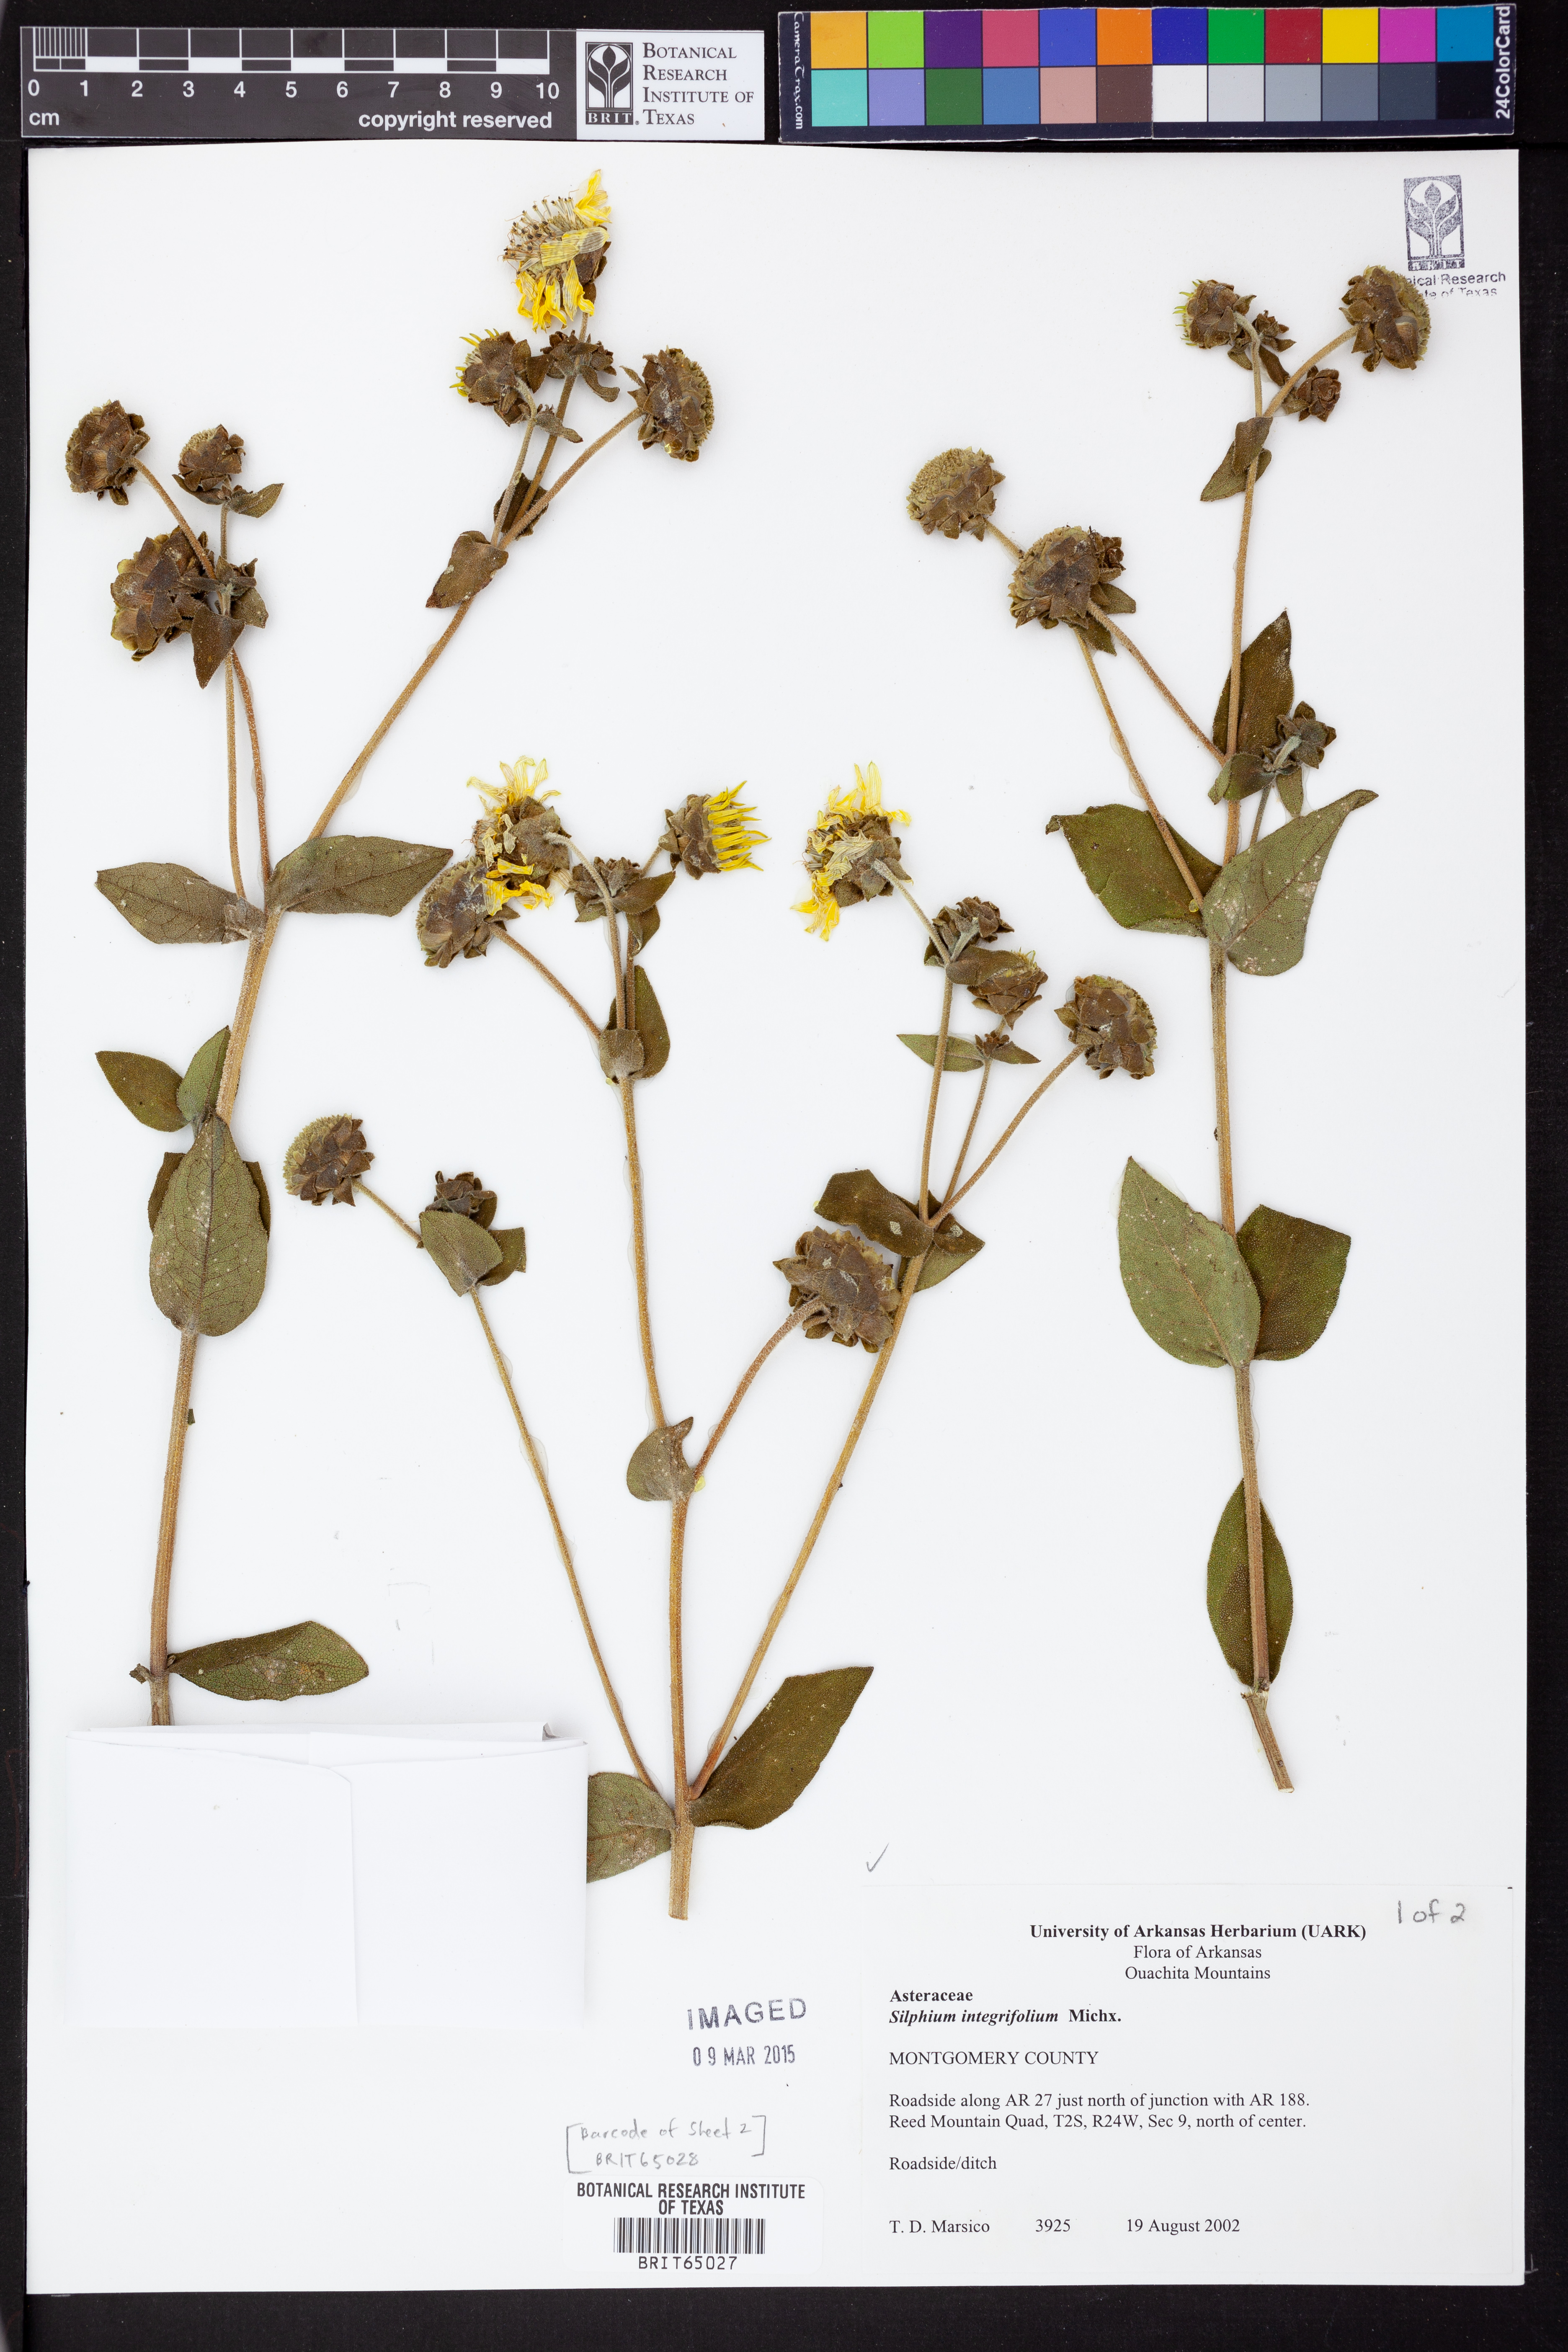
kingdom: Plantae
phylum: Tracheophyta
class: Magnoliopsida
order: Asterales
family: Asteraceae
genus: Silphium
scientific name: Silphium integrifolium
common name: Whole-leaf rosinweed
